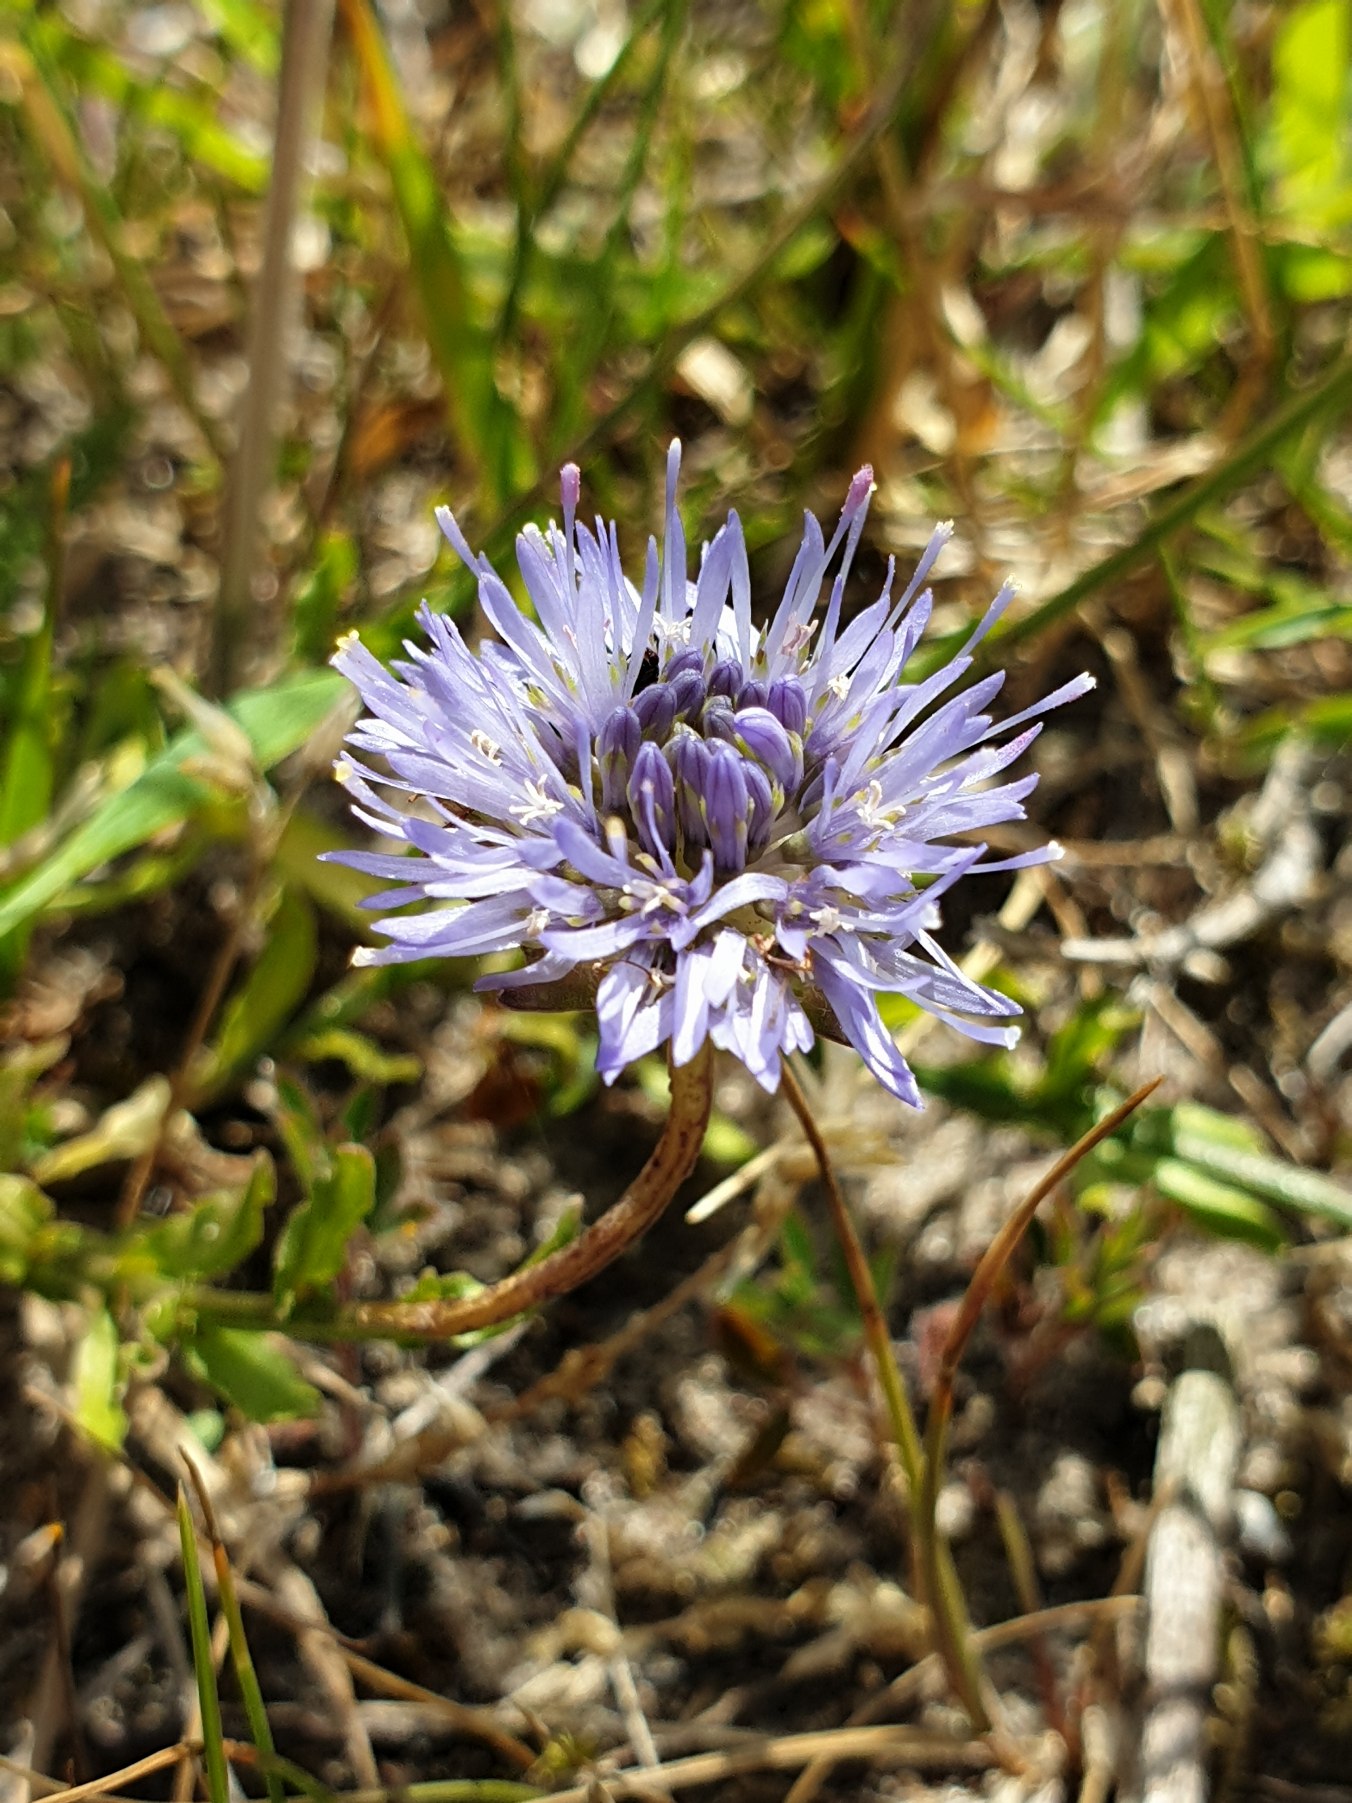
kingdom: Plantae
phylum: Tracheophyta
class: Magnoliopsida
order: Asterales
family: Campanulaceae
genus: Jasione
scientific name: Jasione montana
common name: Blåmunke
